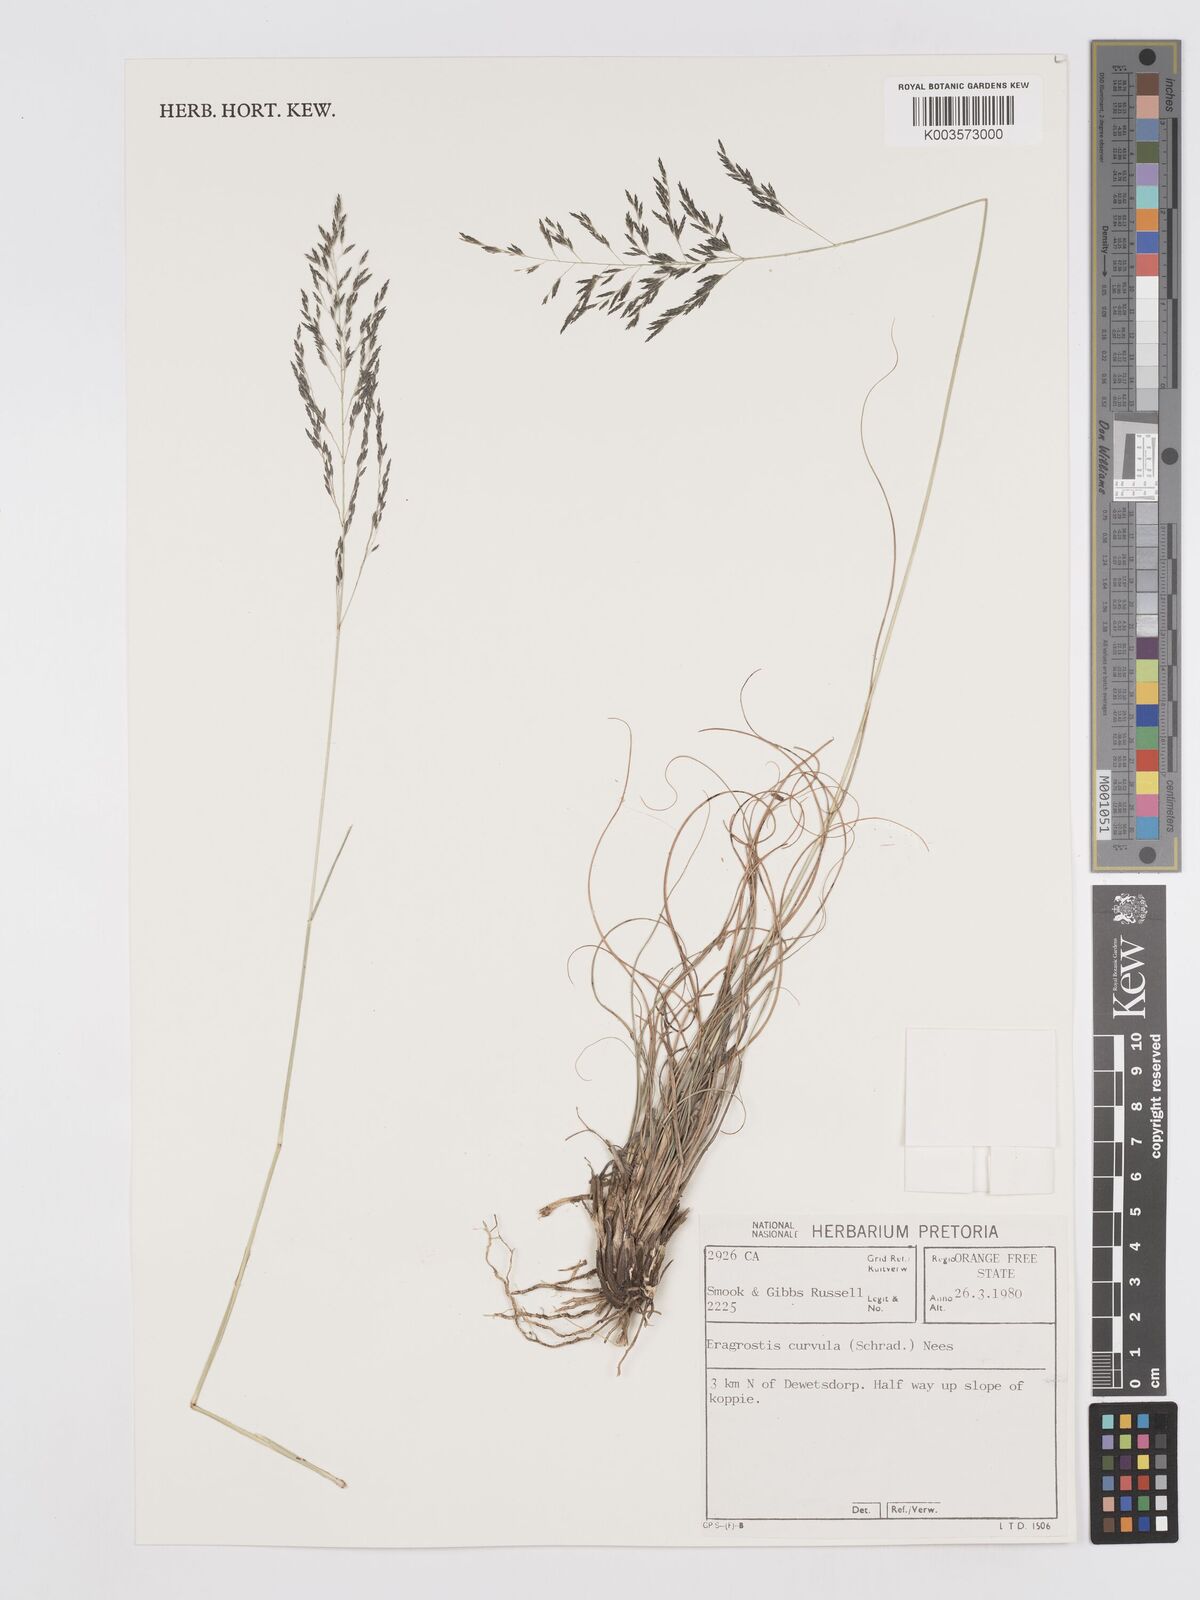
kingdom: Plantae
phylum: Tracheophyta
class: Liliopsida
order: Poales
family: Poaceae
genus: Eragrostis
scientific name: Eragrostis curvula
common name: African love-grass
